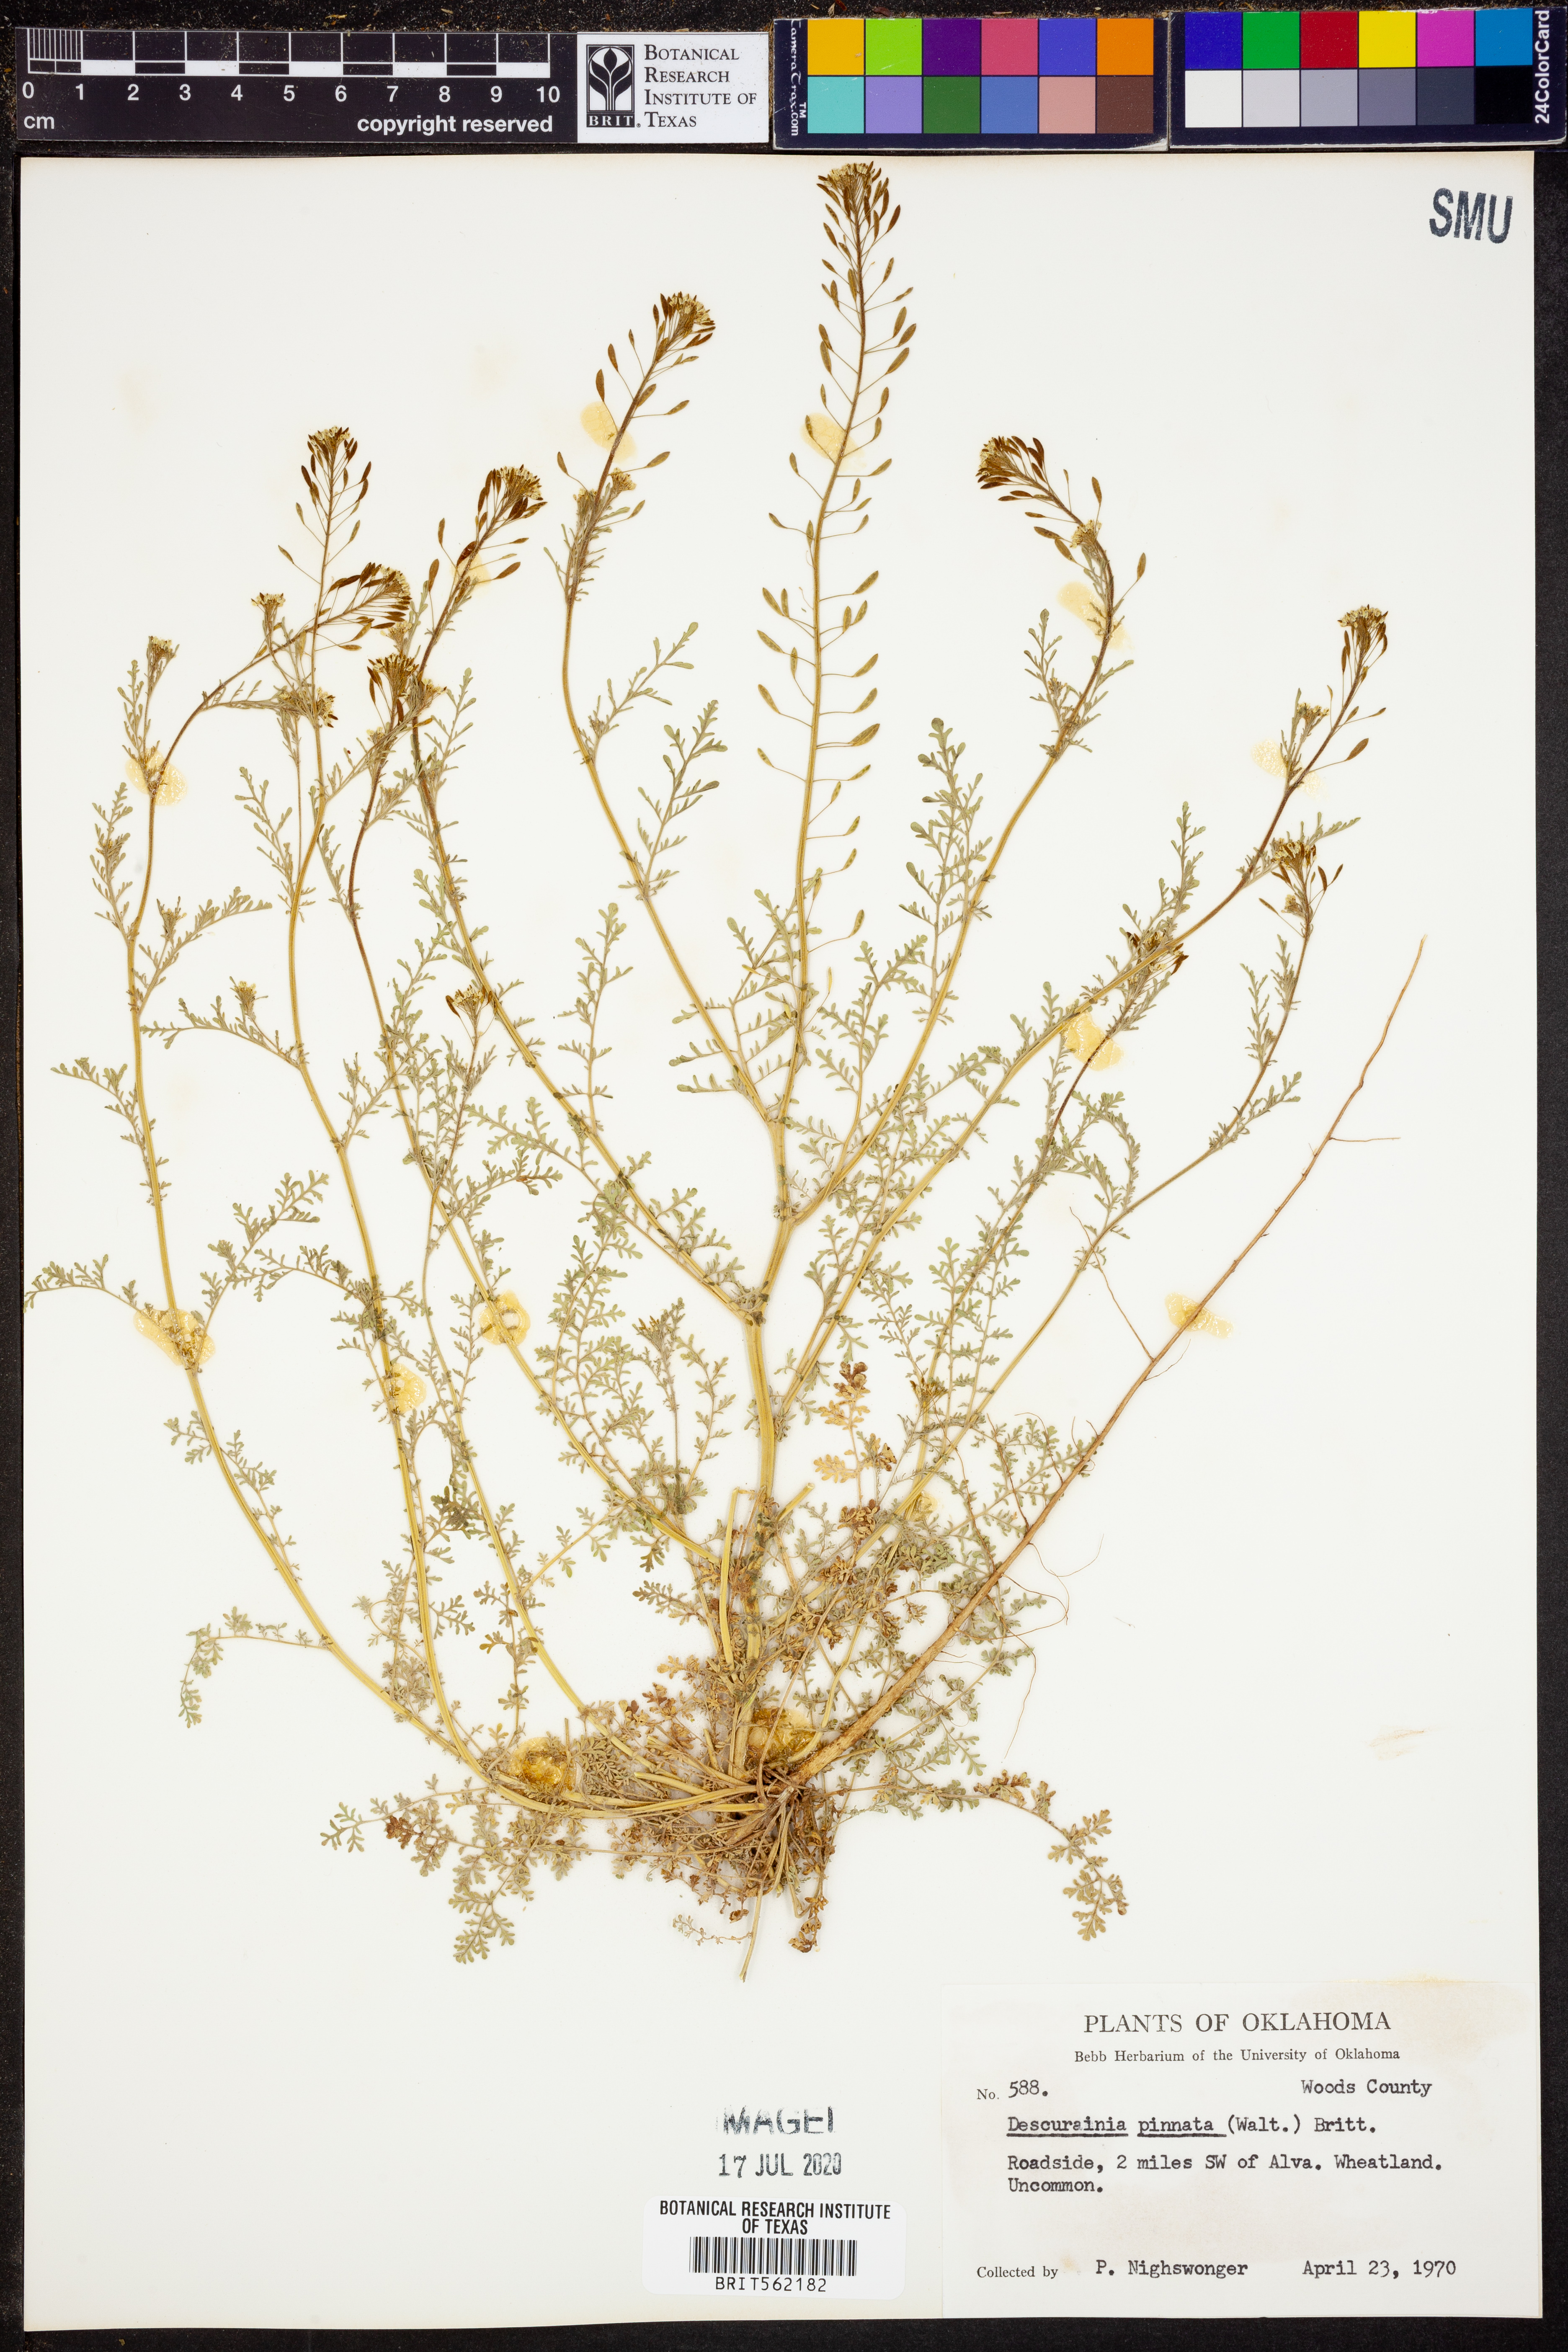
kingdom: Plantae
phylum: Tracheophyta
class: Magnoliopsida
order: Brassicales
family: Brassicaceae
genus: Descurainia
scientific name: Descurainia pinnata
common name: Western tansy mustard
